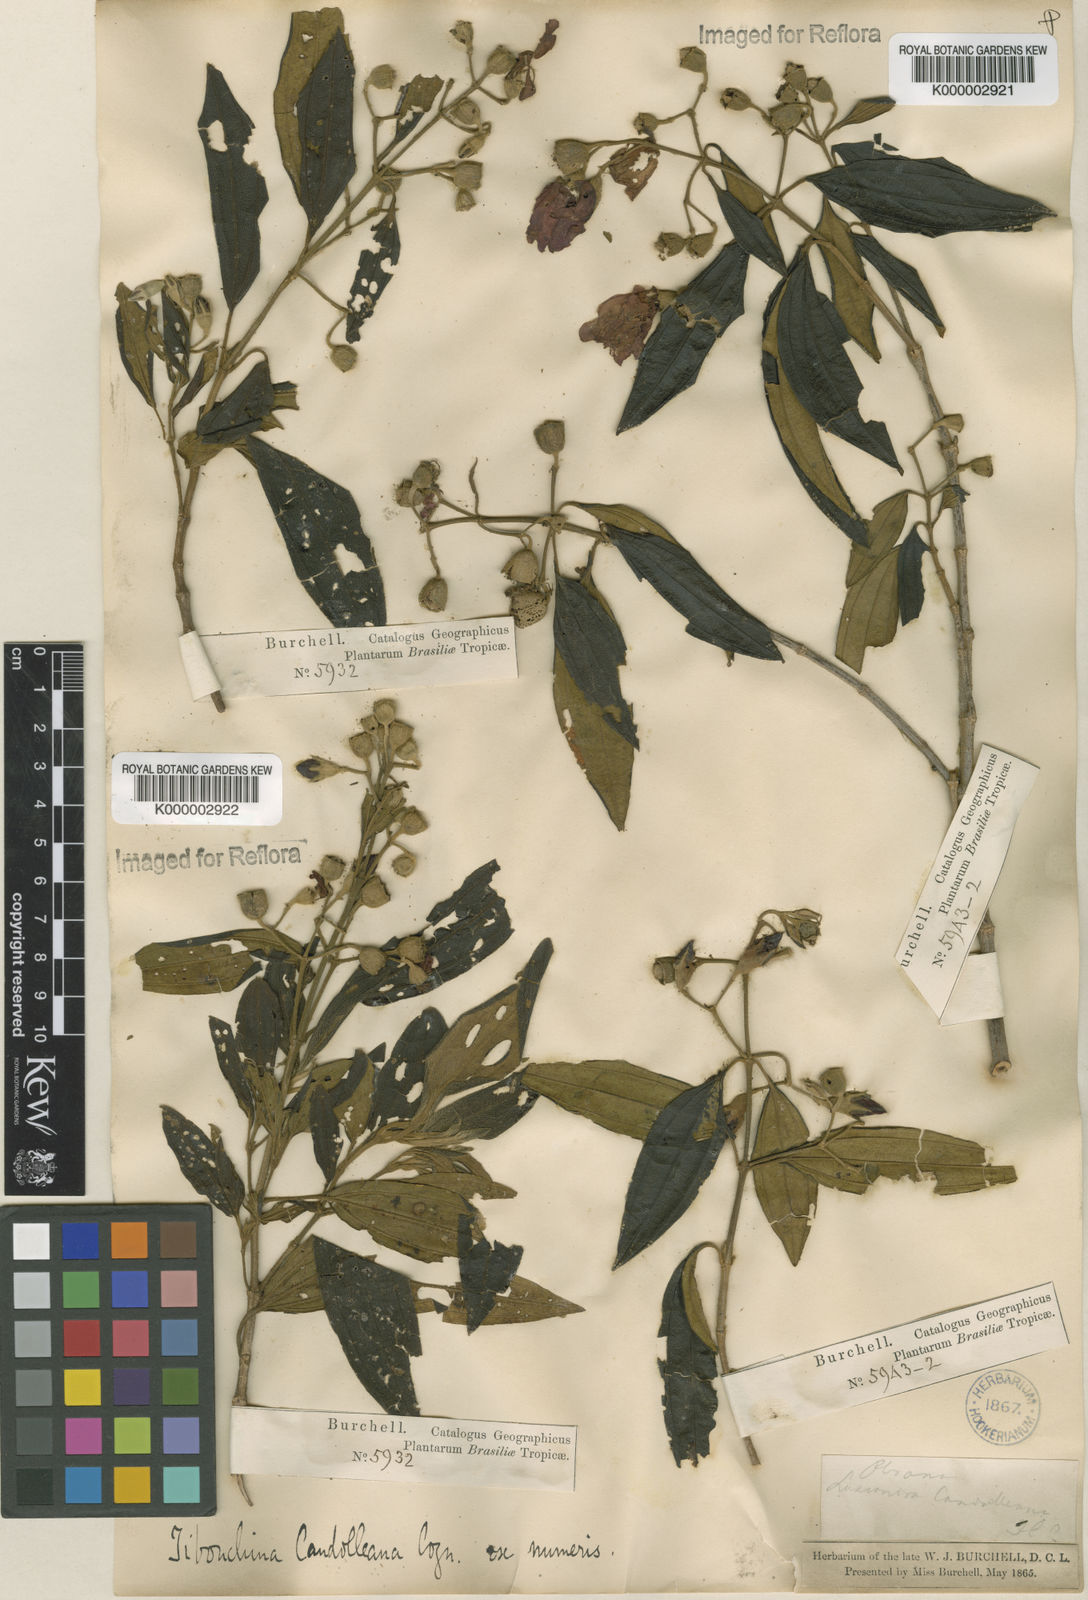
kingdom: Plantae
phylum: Tracheophyta
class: Magnoliopsida
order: Myrtales
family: Melastomataceae
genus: Pleroma
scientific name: Pleroma candolleanum
